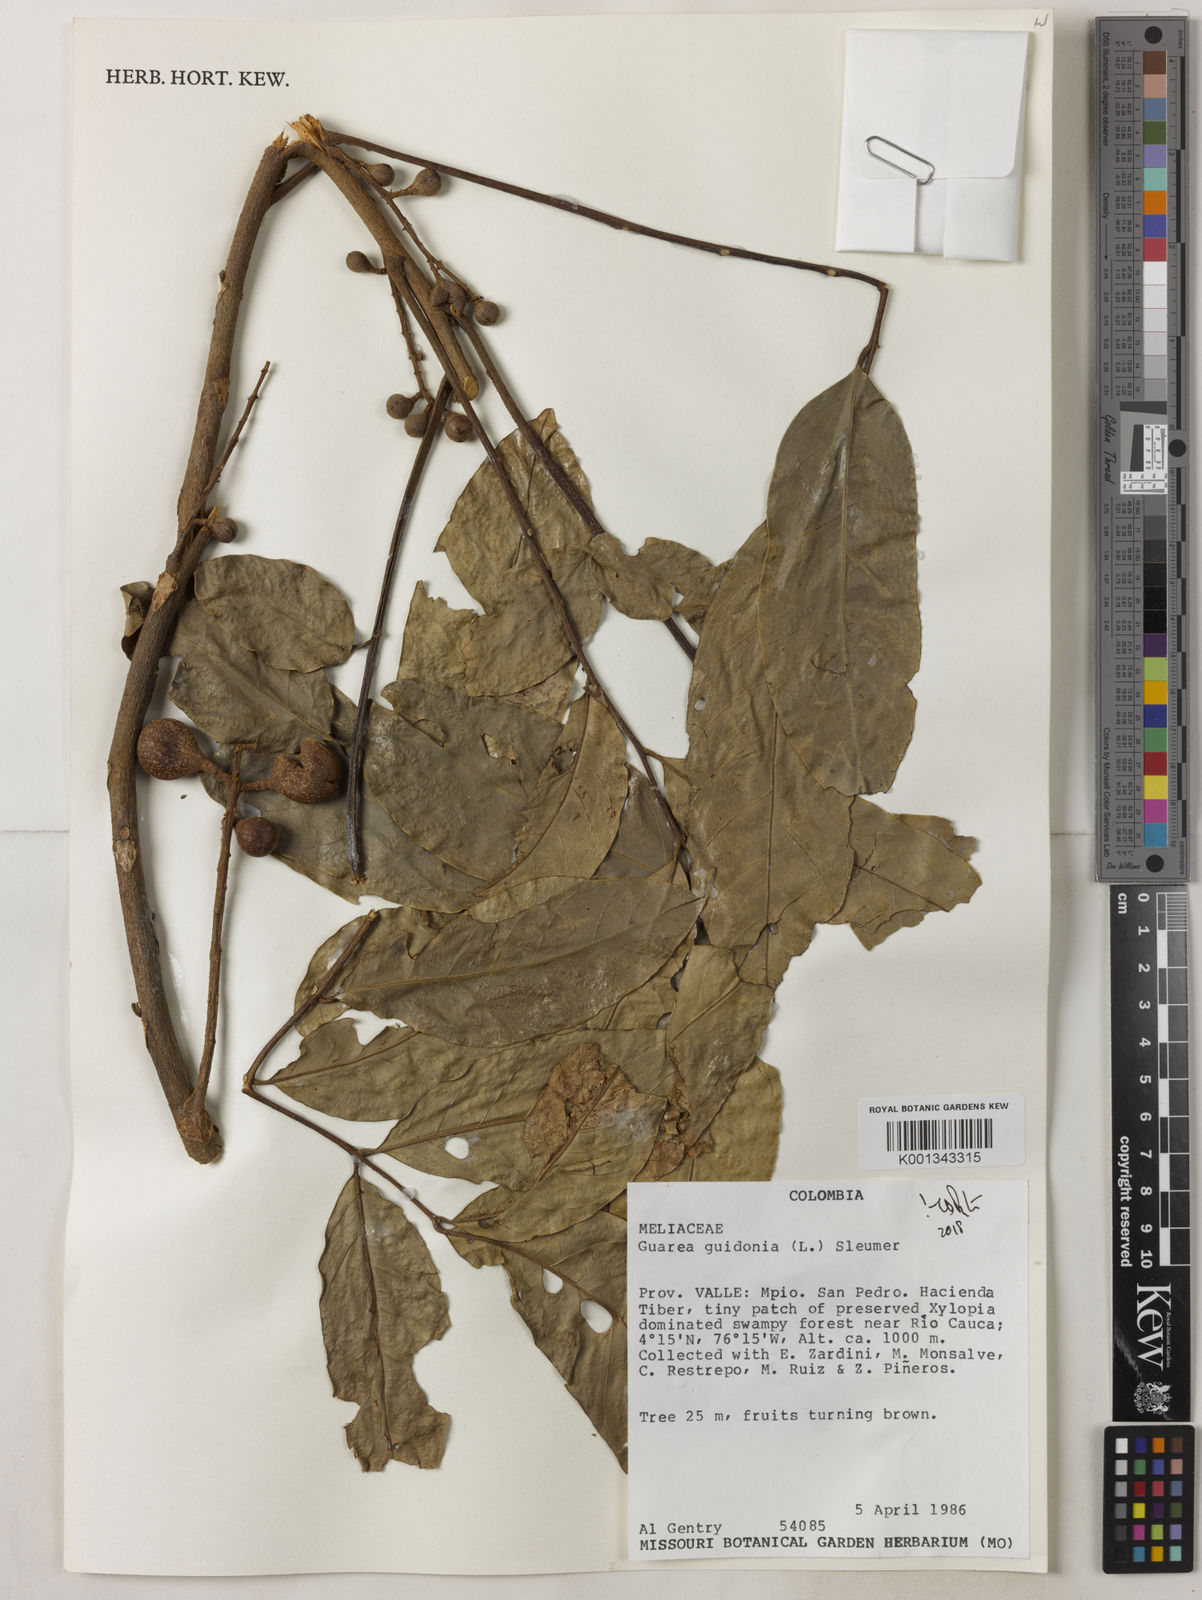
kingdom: Plantae
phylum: Tracheophyta
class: Magnoliopsida
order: Sapindales
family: Meliaceae
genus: Guarea
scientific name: Guarea guidonia
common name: American muskwood
